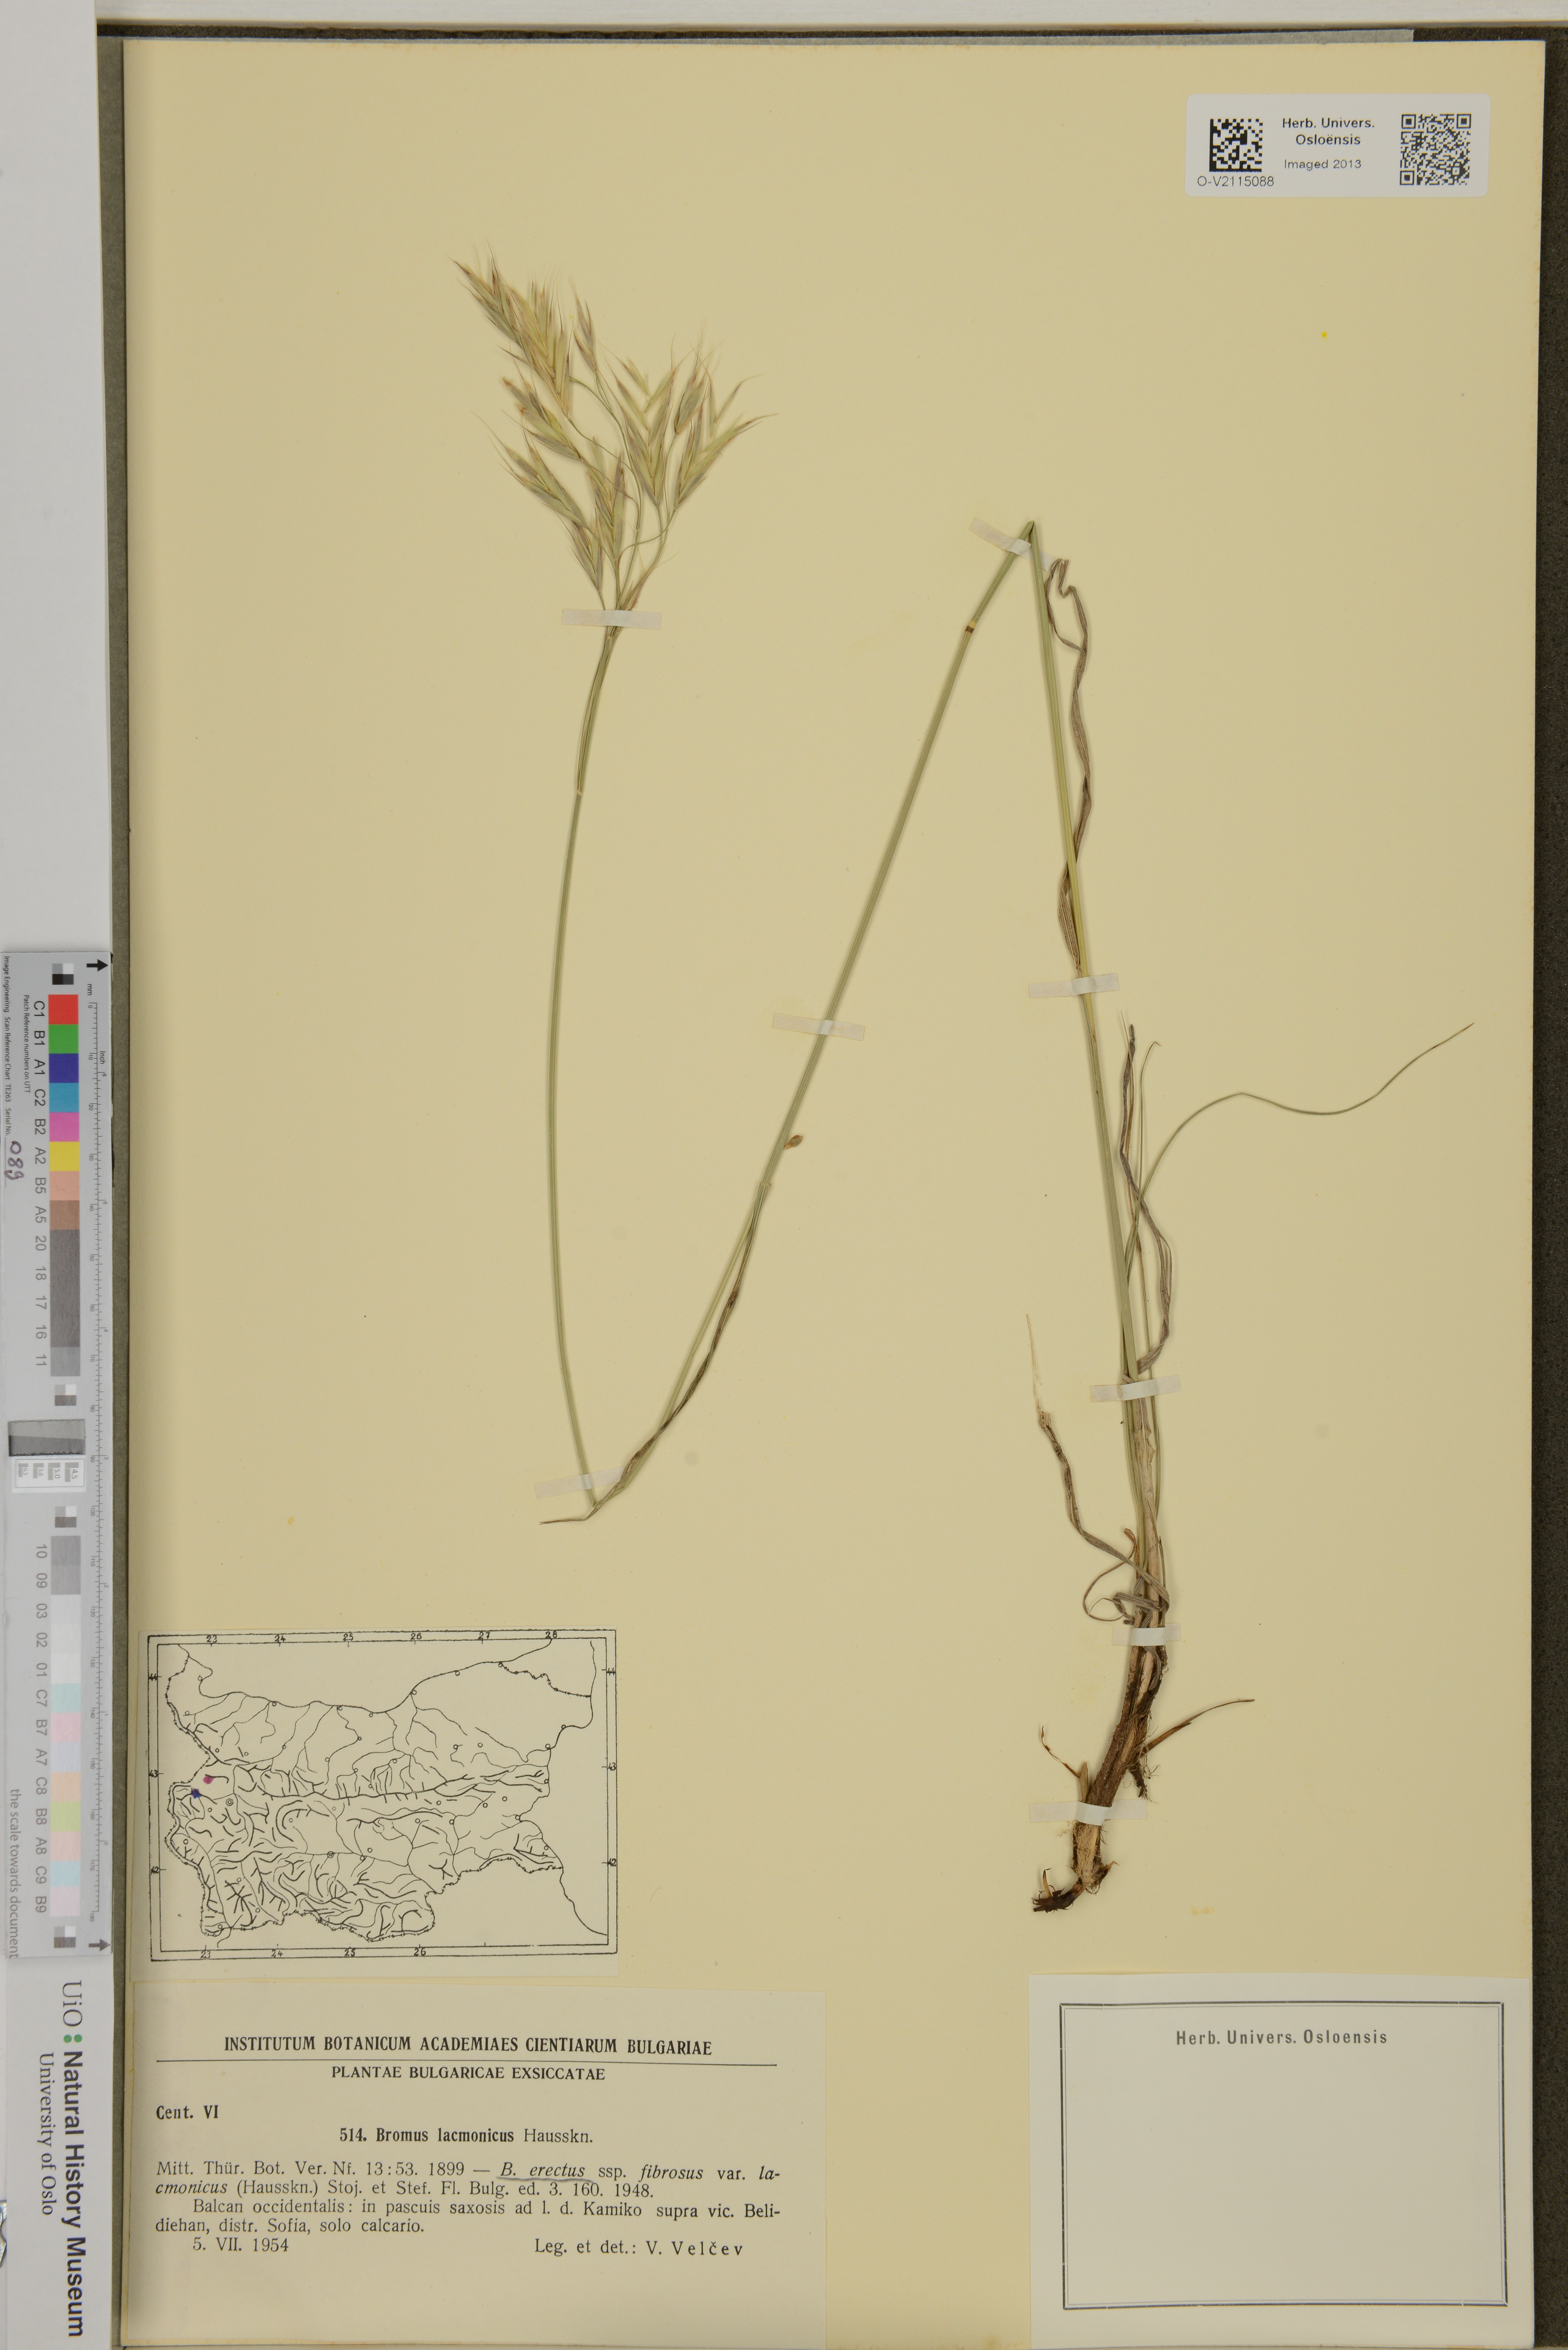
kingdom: Plantae
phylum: Tracheophyta
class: Liliopsida
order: Poales
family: Poaceae
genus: Bromus
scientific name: Bromus sclerophyllus
